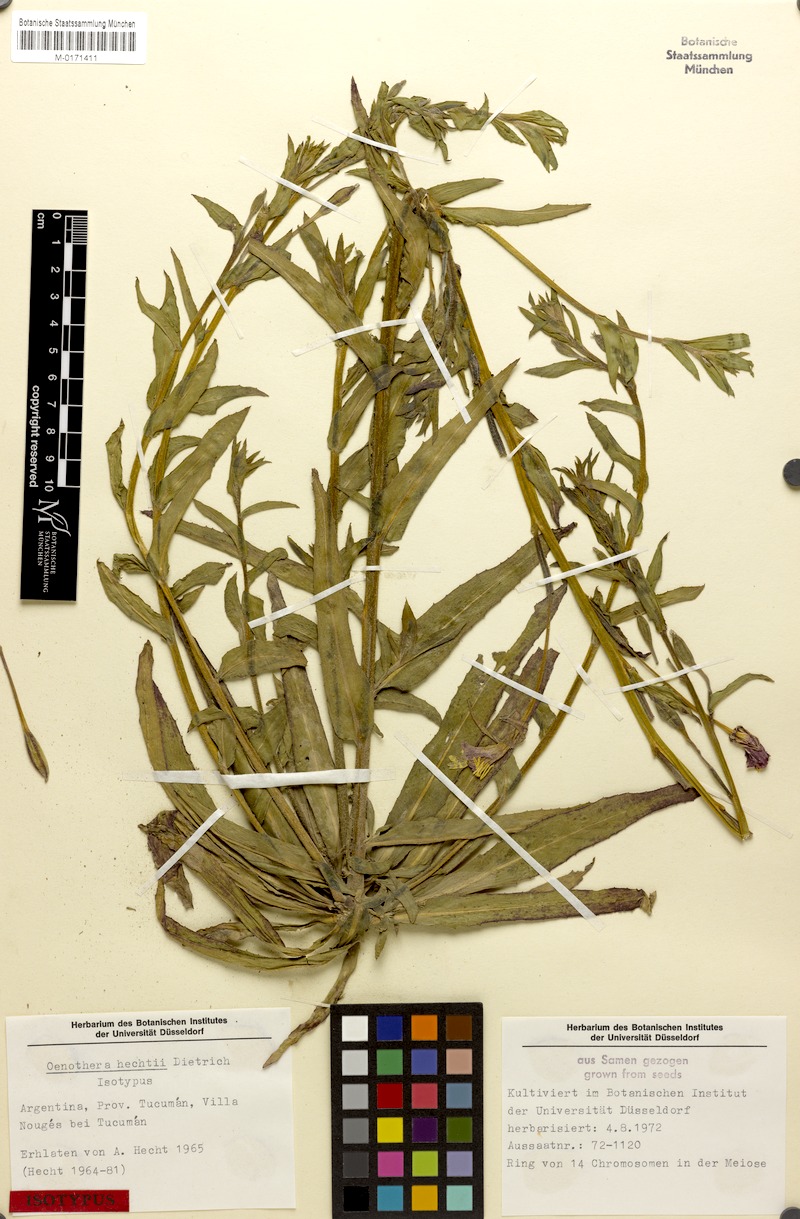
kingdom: Plantae
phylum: Tracheophyta
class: Magnoliopsida
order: Myrtales
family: Onagraceae
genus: Oenothera
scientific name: Oenothera siambonensis
